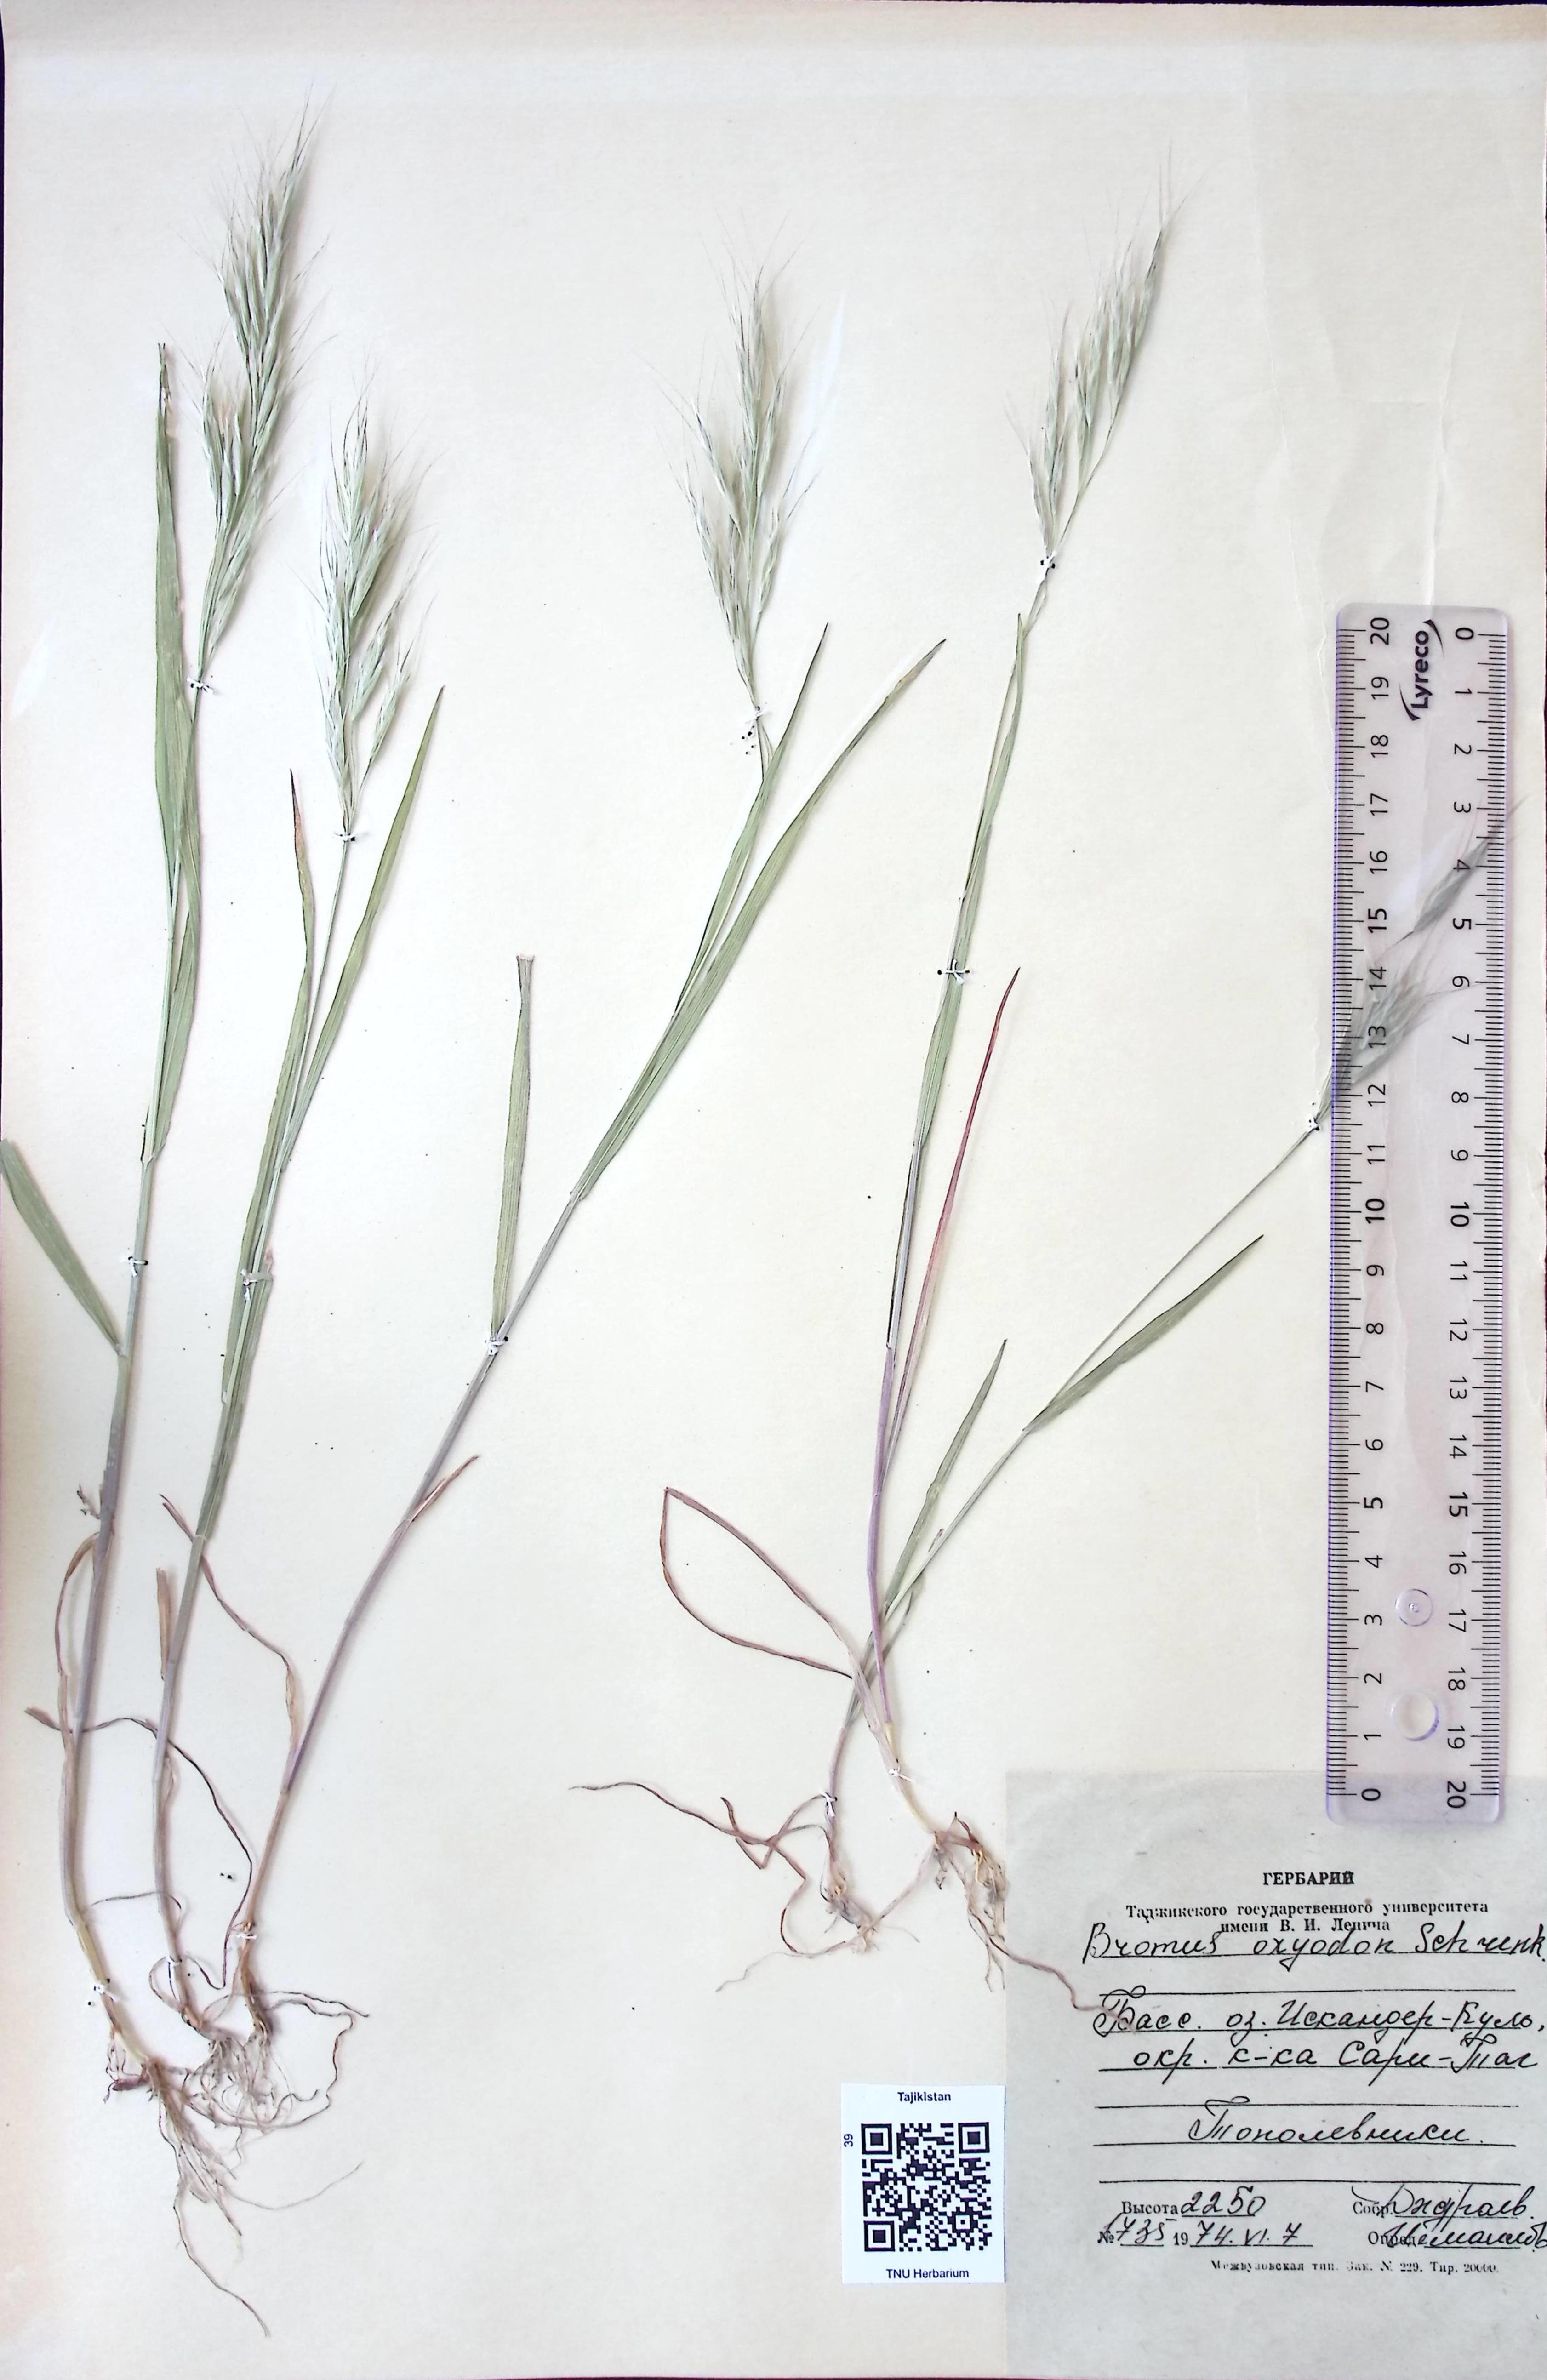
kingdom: Plantae
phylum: Tracheophyta
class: Liliopsida
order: Poales
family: Poaceae
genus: Bromus
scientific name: Bromus oxyodon
